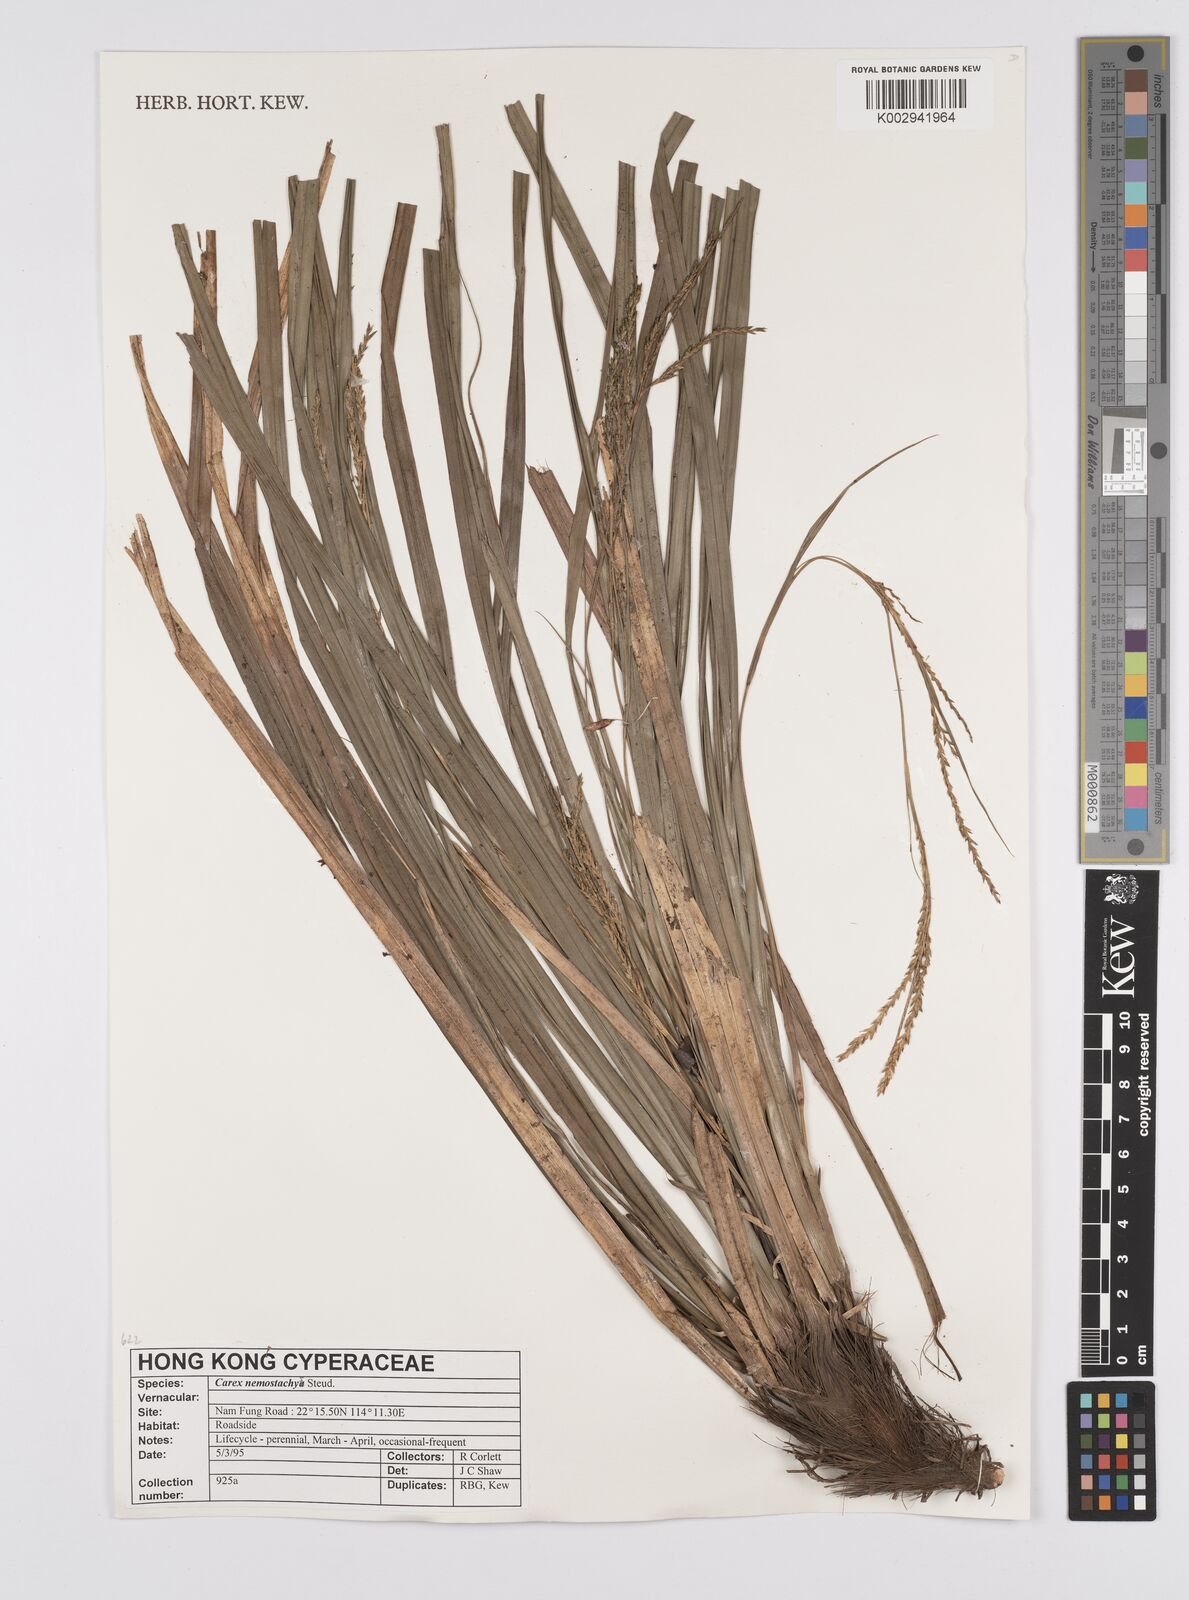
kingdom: Plantae
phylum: Tracheophyta
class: Liliopsida
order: Poales
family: Cyperaceae
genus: Carex
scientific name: Carex nemostachys
